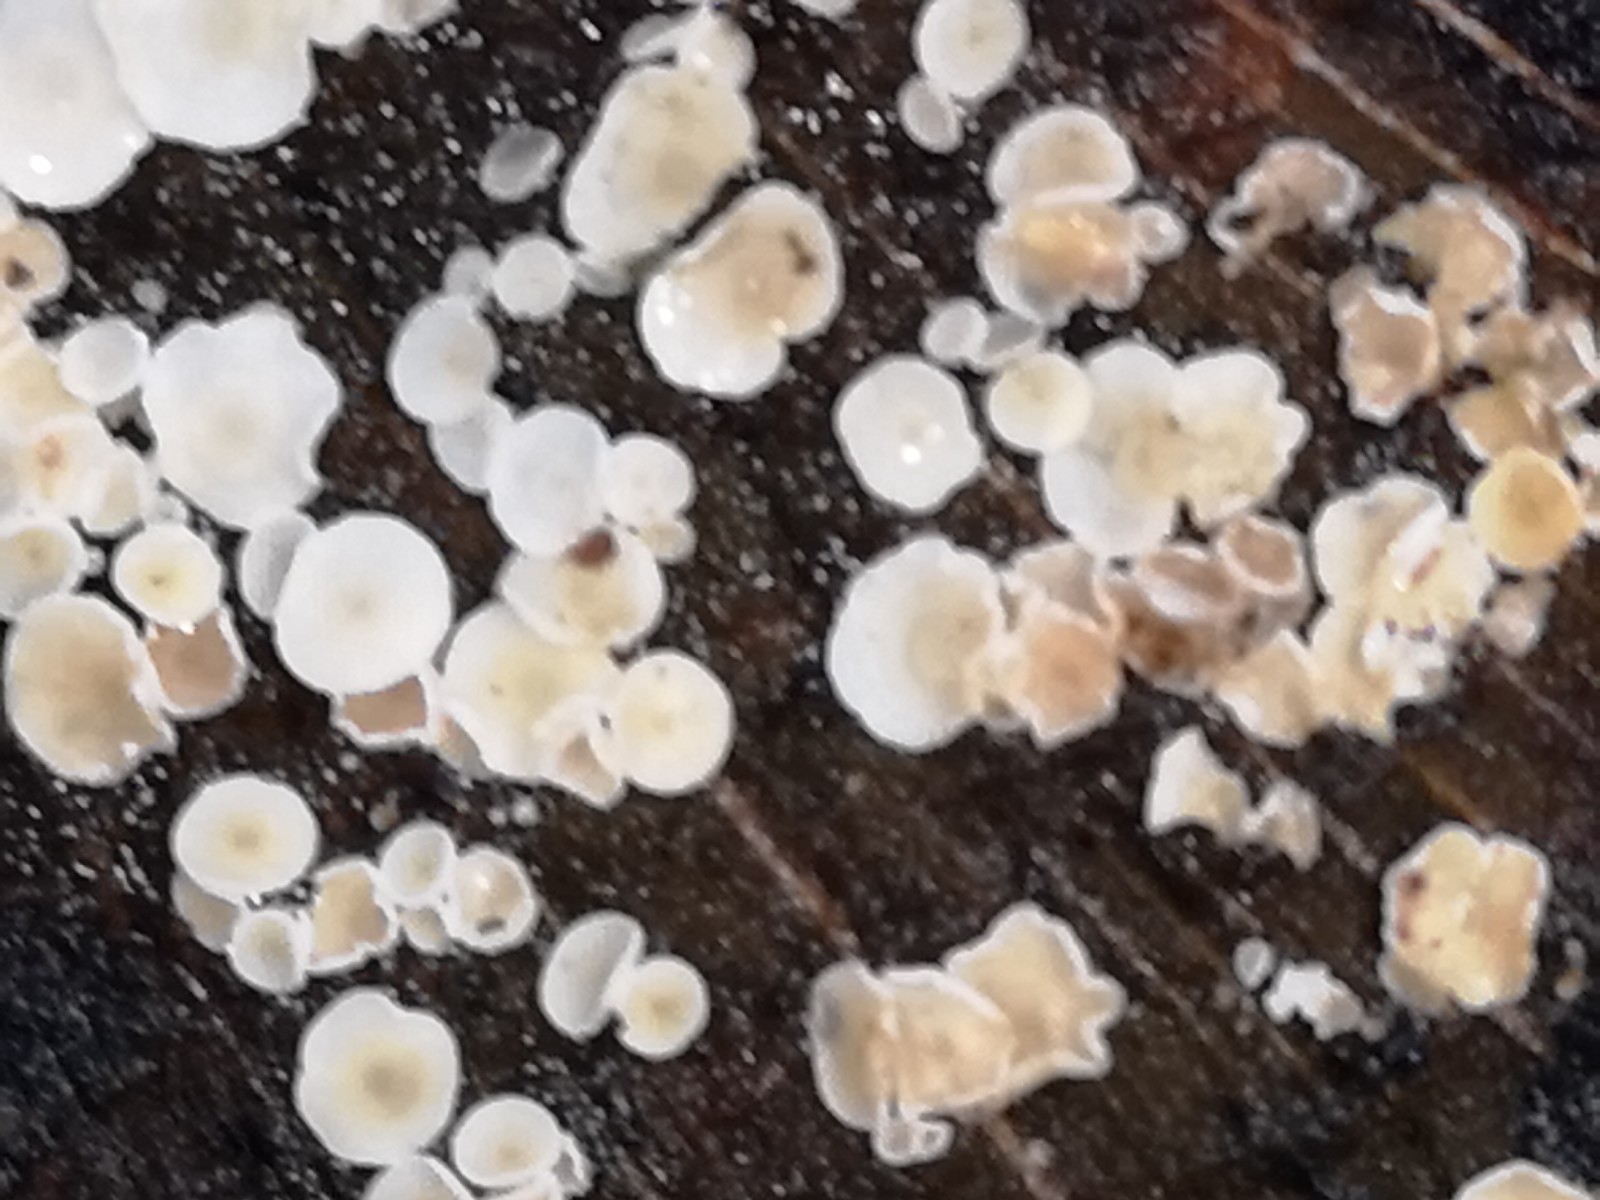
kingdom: Fungi
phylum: Ascomycota
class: Leotiomycetes
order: Helotiales
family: Lachnaceae
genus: Lachnum
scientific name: Lachnum
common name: frynseskive
